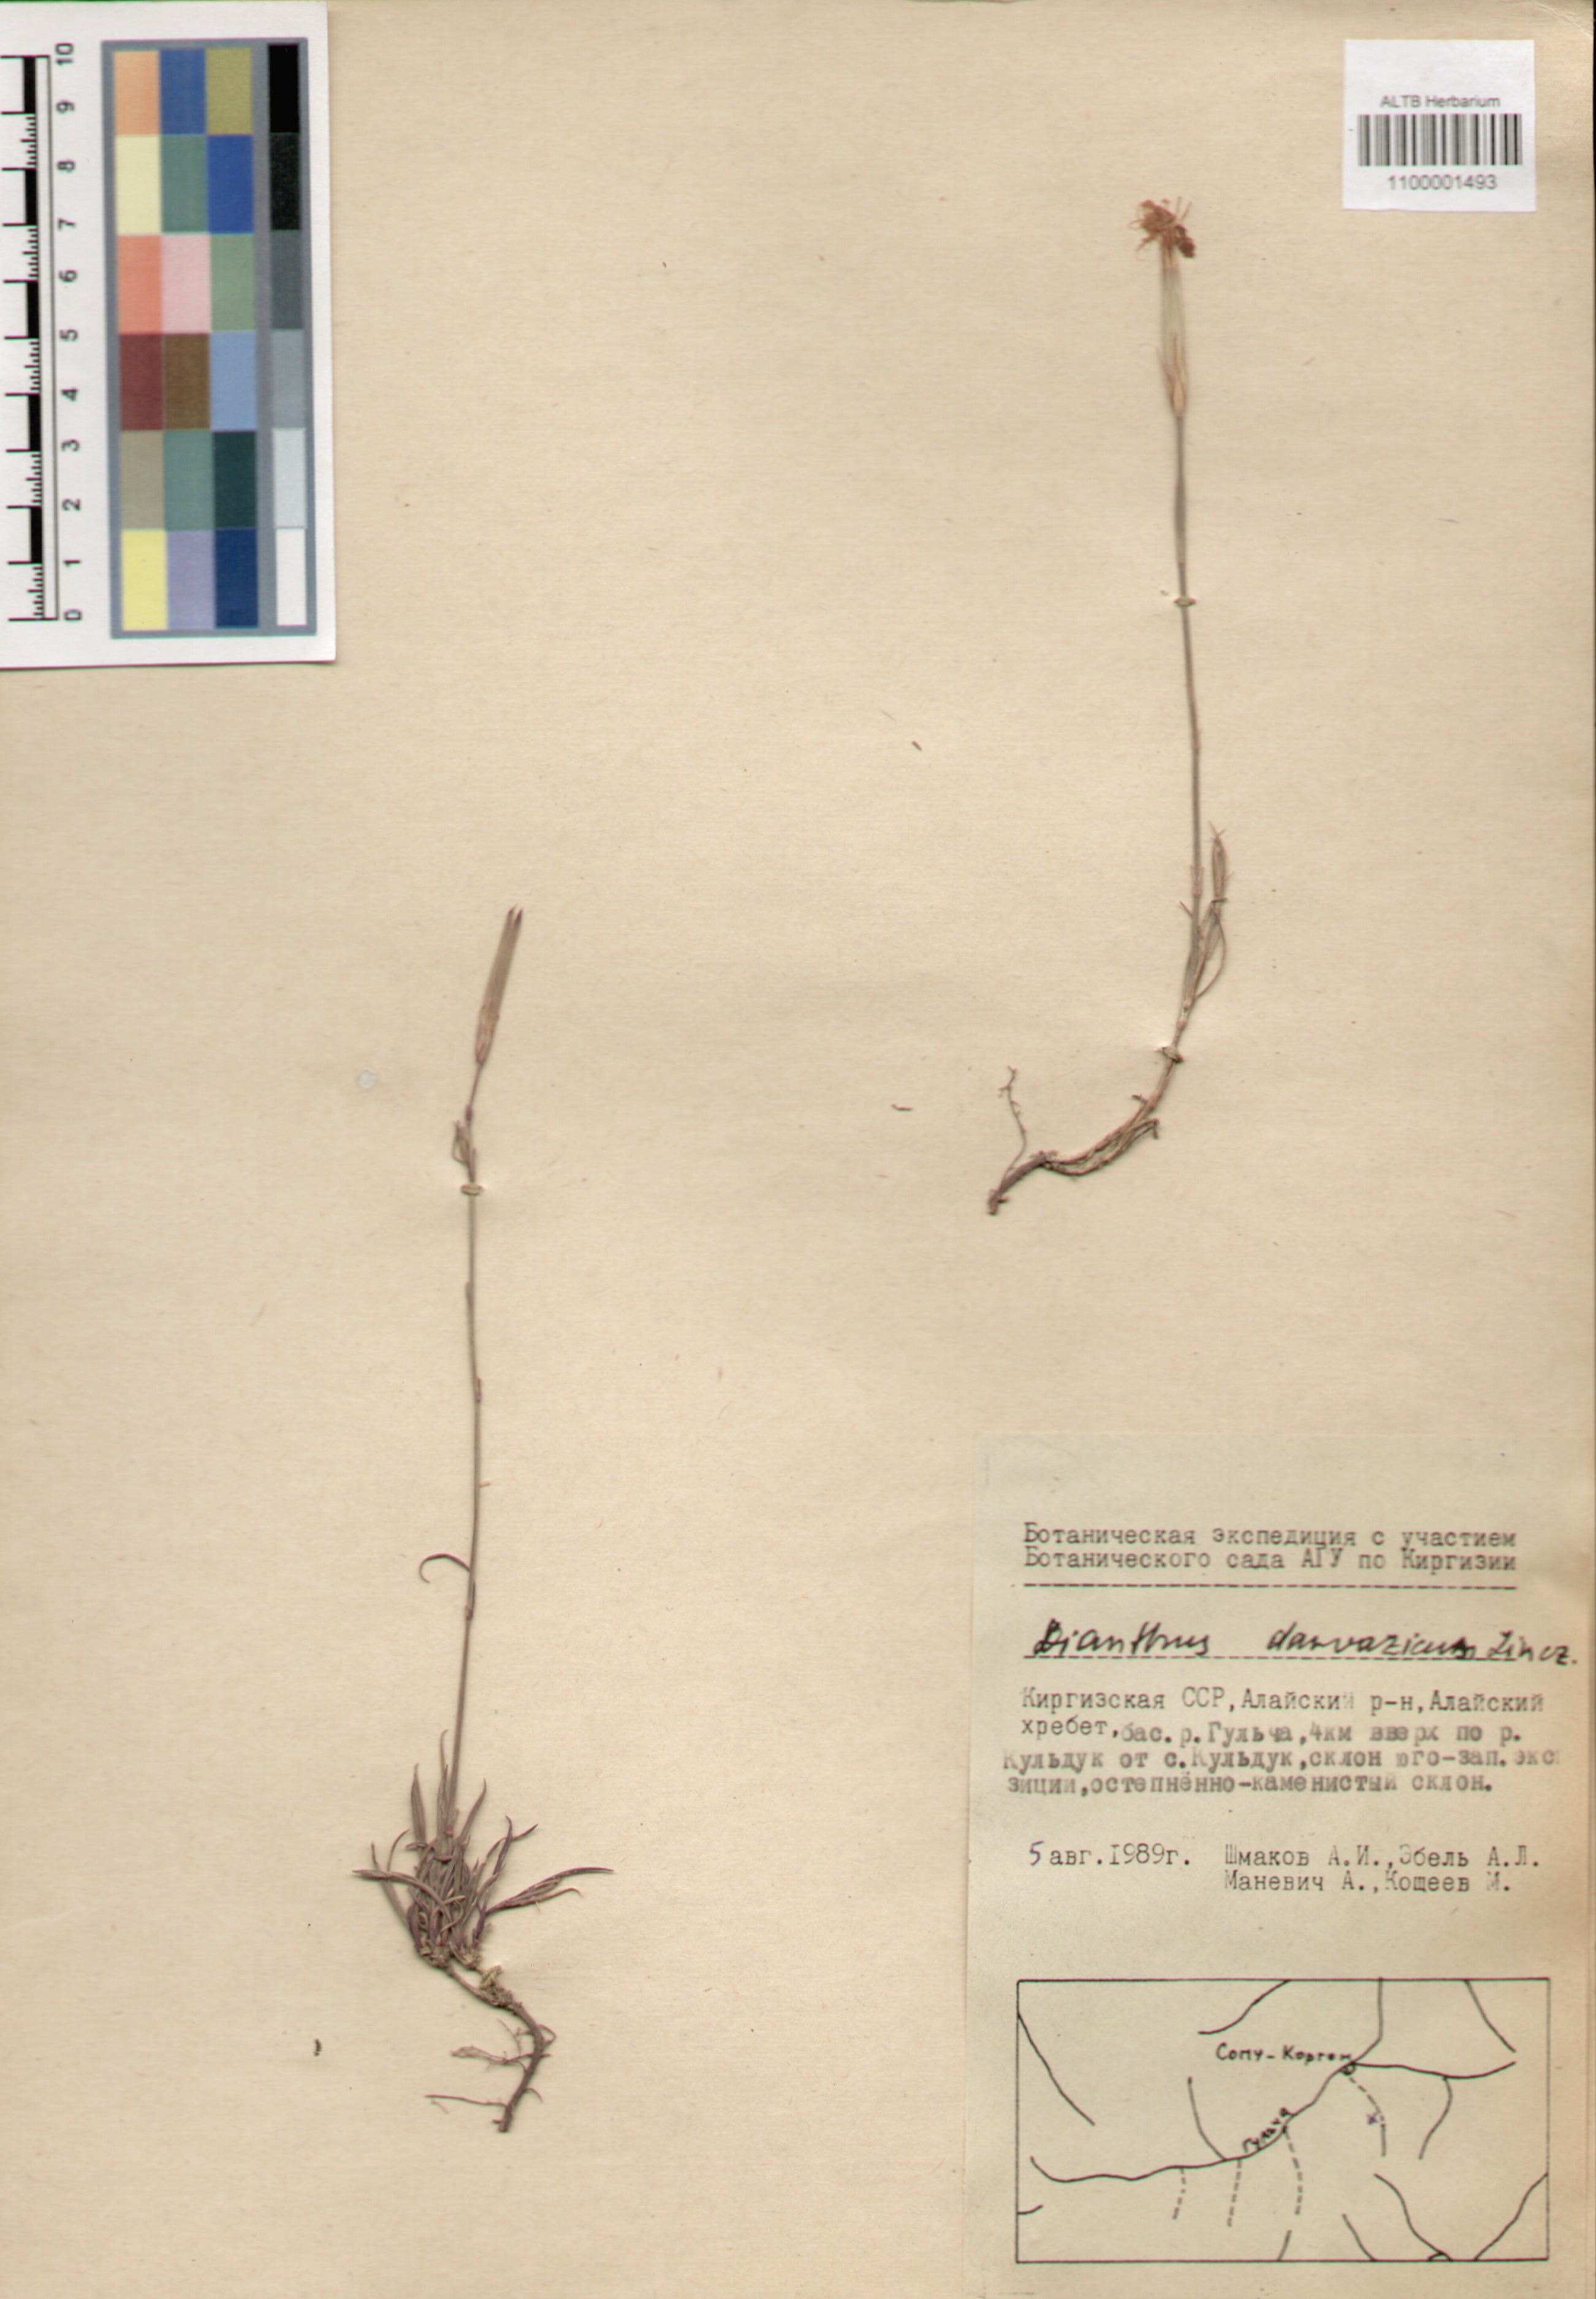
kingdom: Plantae
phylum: Tracheophyta
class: Magnoliopsida
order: Caryophyllales
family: Caryophyllaceae
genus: Dianthus
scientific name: Dianthus darvazicus
